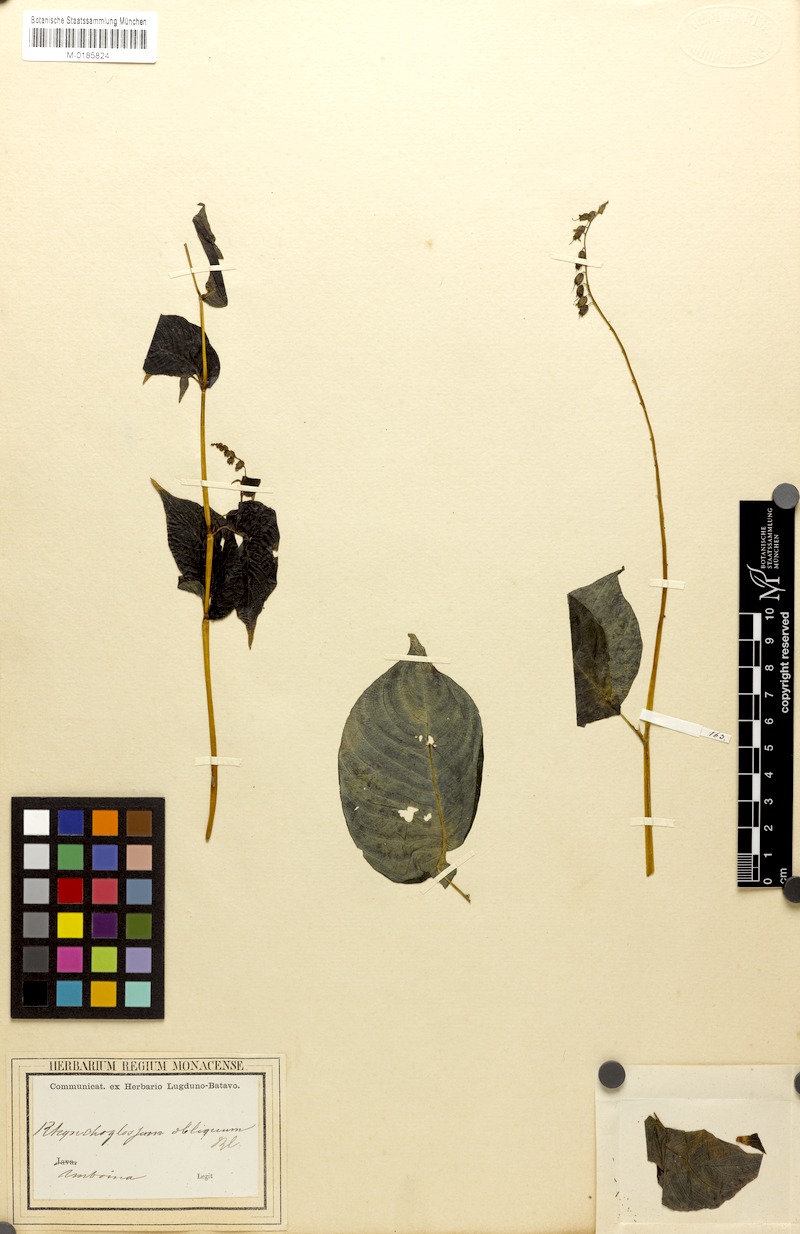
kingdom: Plantae
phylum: Tracheophyta
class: Magnoliopsida
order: Lamiales
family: Gesneriaceae
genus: Rhynchoglossum
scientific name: Rhynchoglossum obliquum
